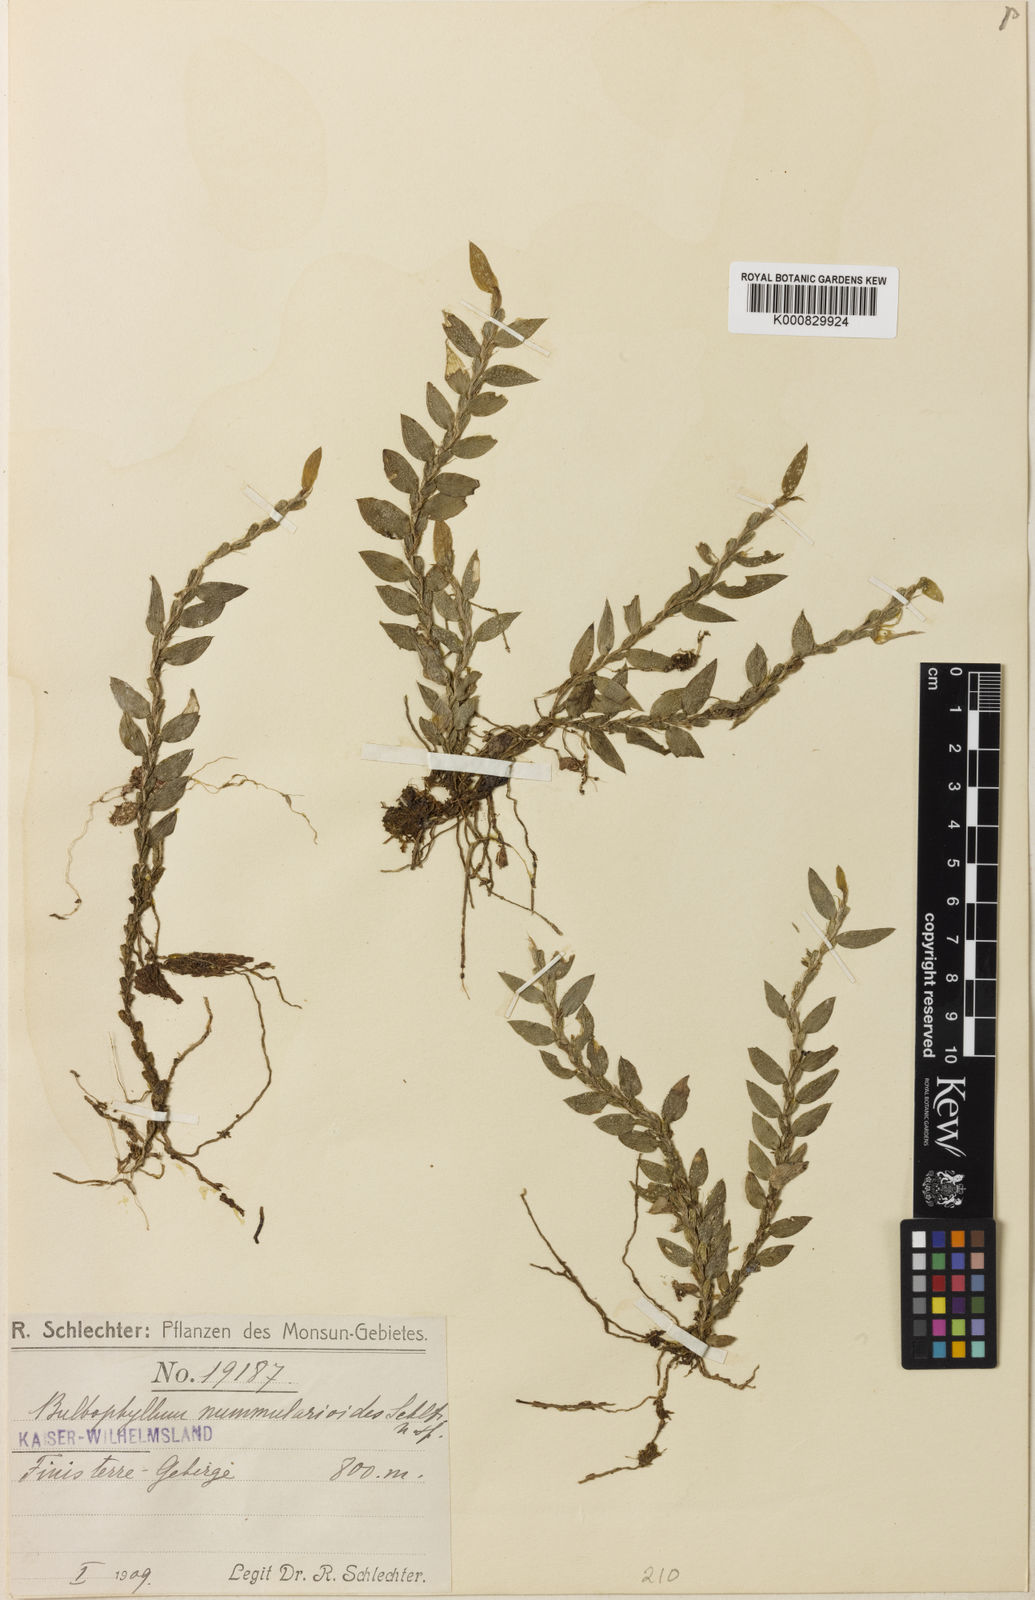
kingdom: Plantae
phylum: Tracheophyta
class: Liliopsida
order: Asparagales
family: Orchidaceae
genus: Bulbophyllum
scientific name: Bulbophyllum nummularioides
